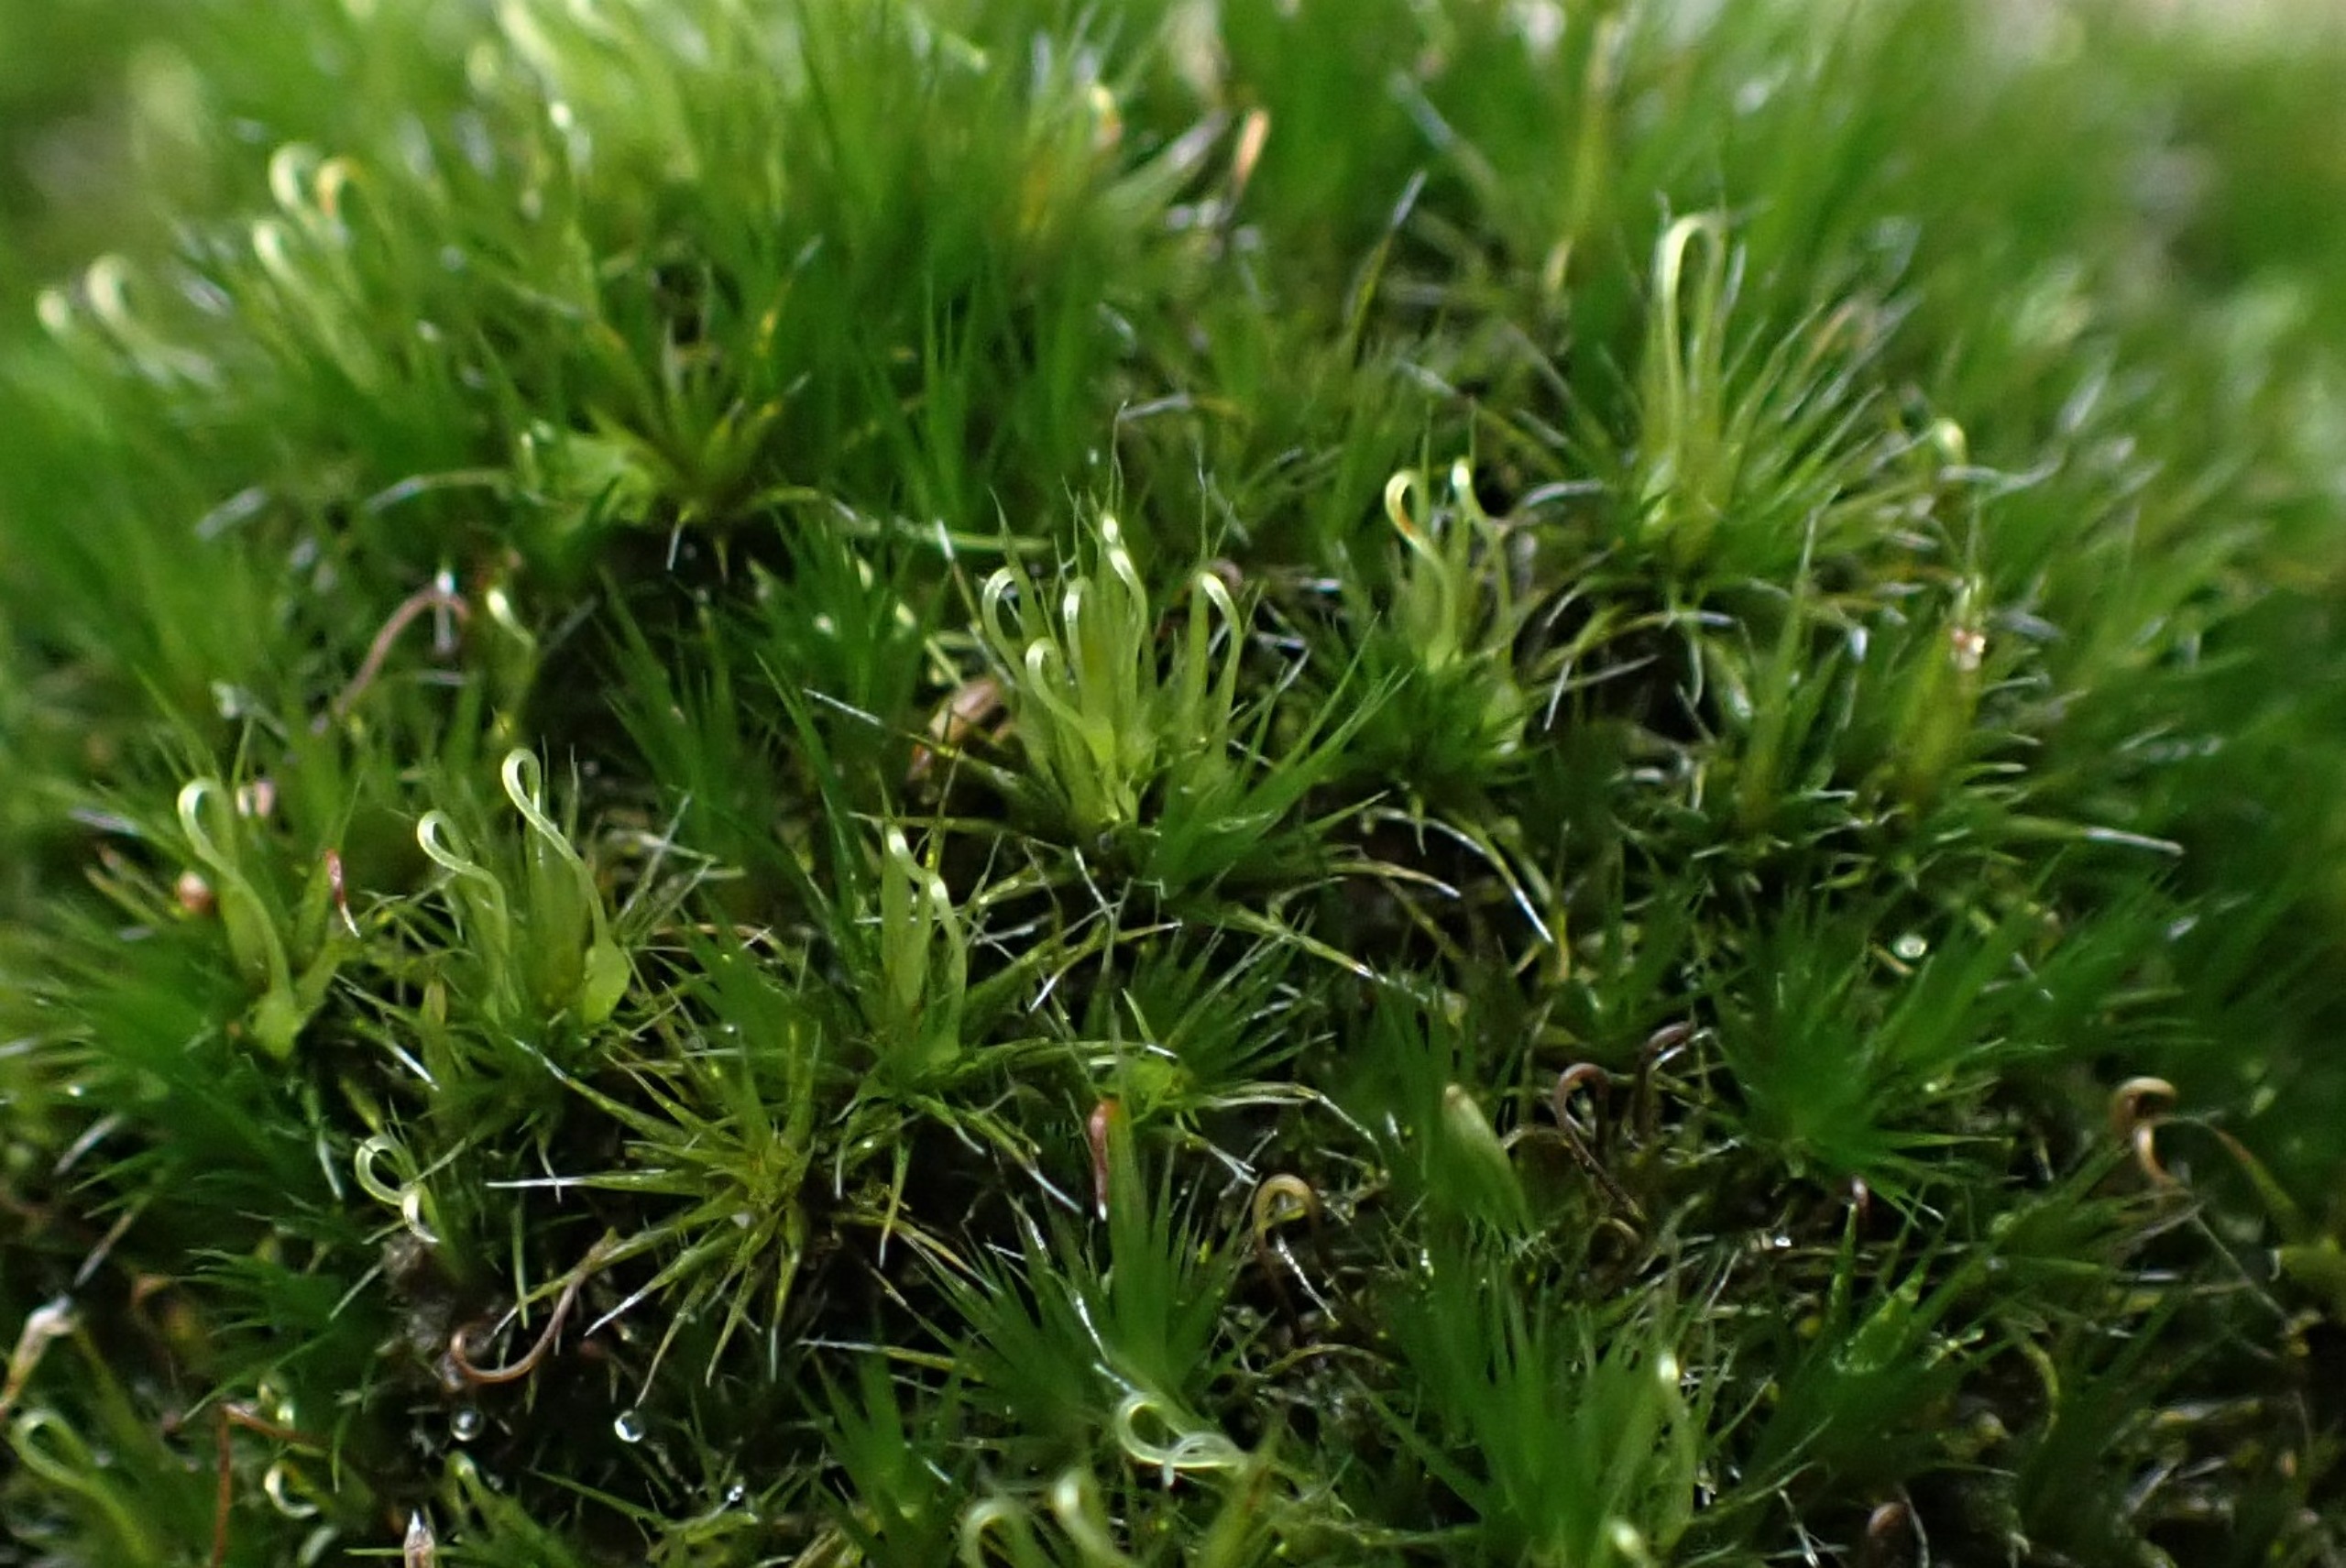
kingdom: Plantae
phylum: Bryophyta
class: Bryopsida
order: Dicranales
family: Leucobryaceae
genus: Campylopus
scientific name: Campylopus introflexus
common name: Stjerne-bredribbe
